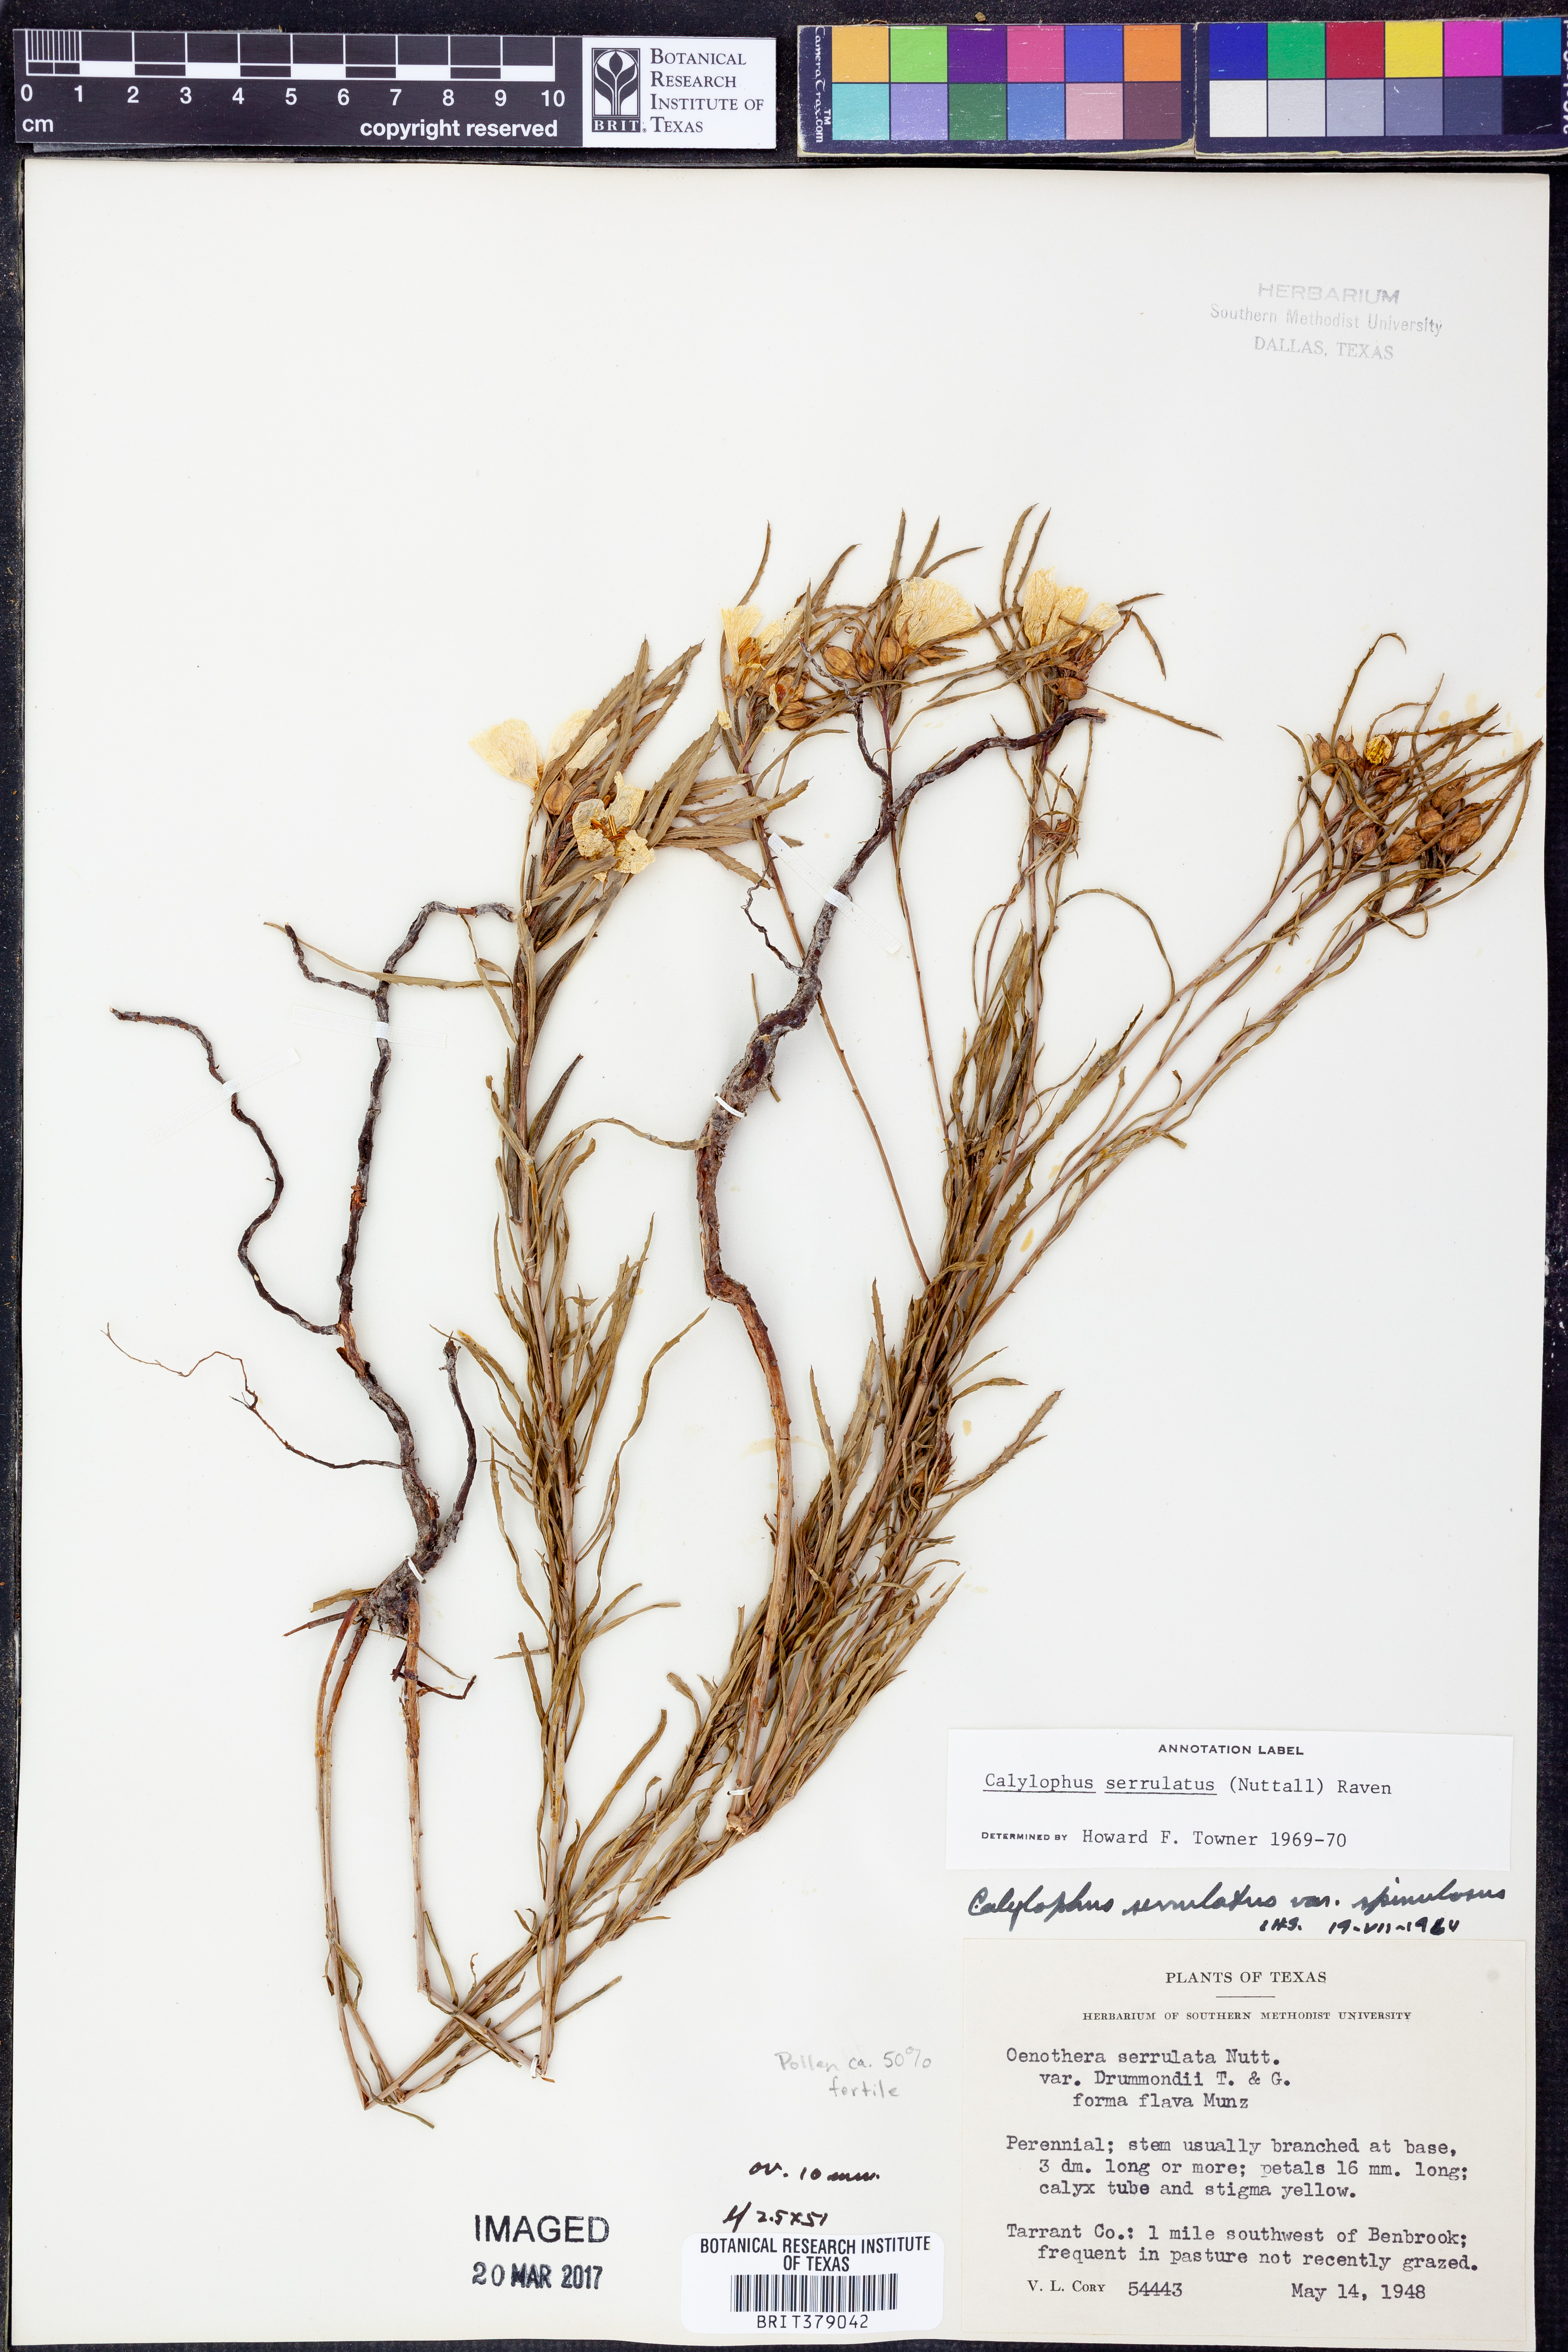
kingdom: Plantae
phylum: Tracheophyta
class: Magnoliopsida
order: Myrtales
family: Onagraceae
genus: Oenothera
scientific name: Oenothera serrulata
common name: Half-shrub calylophus
